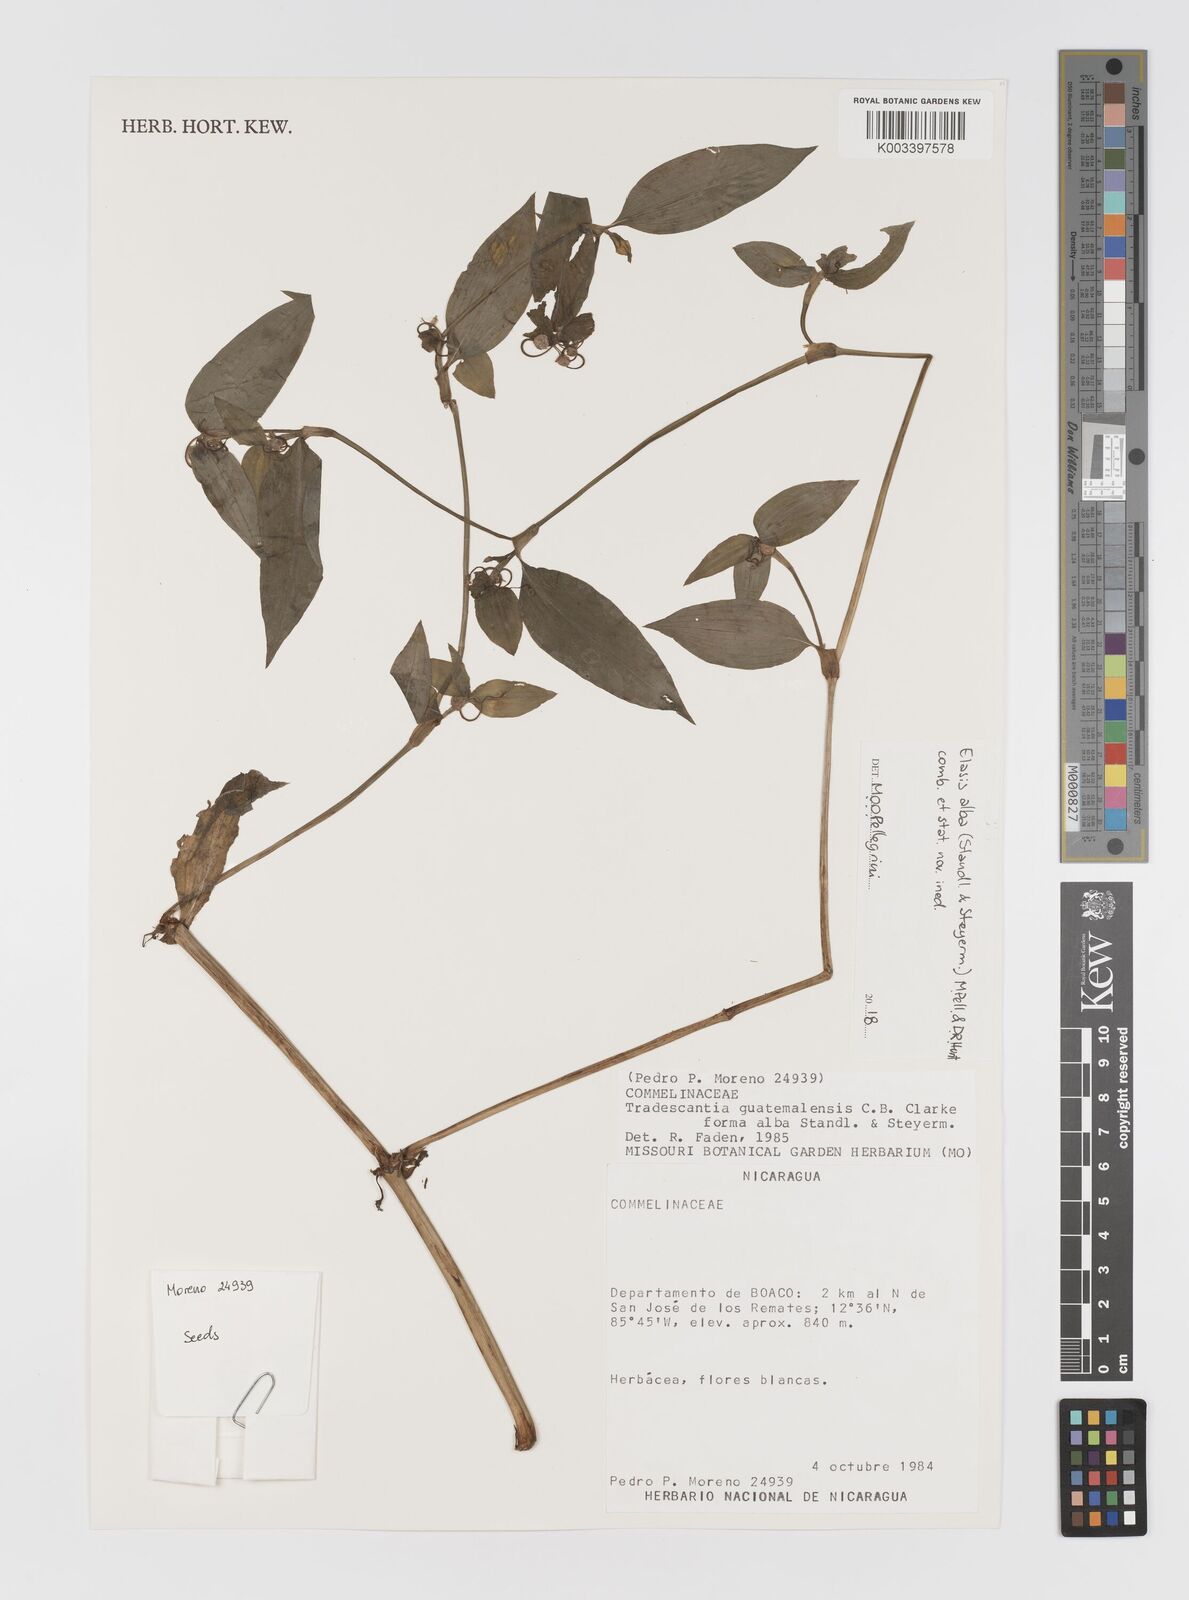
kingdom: Plantae
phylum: Tracheophyta
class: Liliopsida
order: Commelinales
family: Commelinaceae
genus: Elasis
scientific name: Elasis
